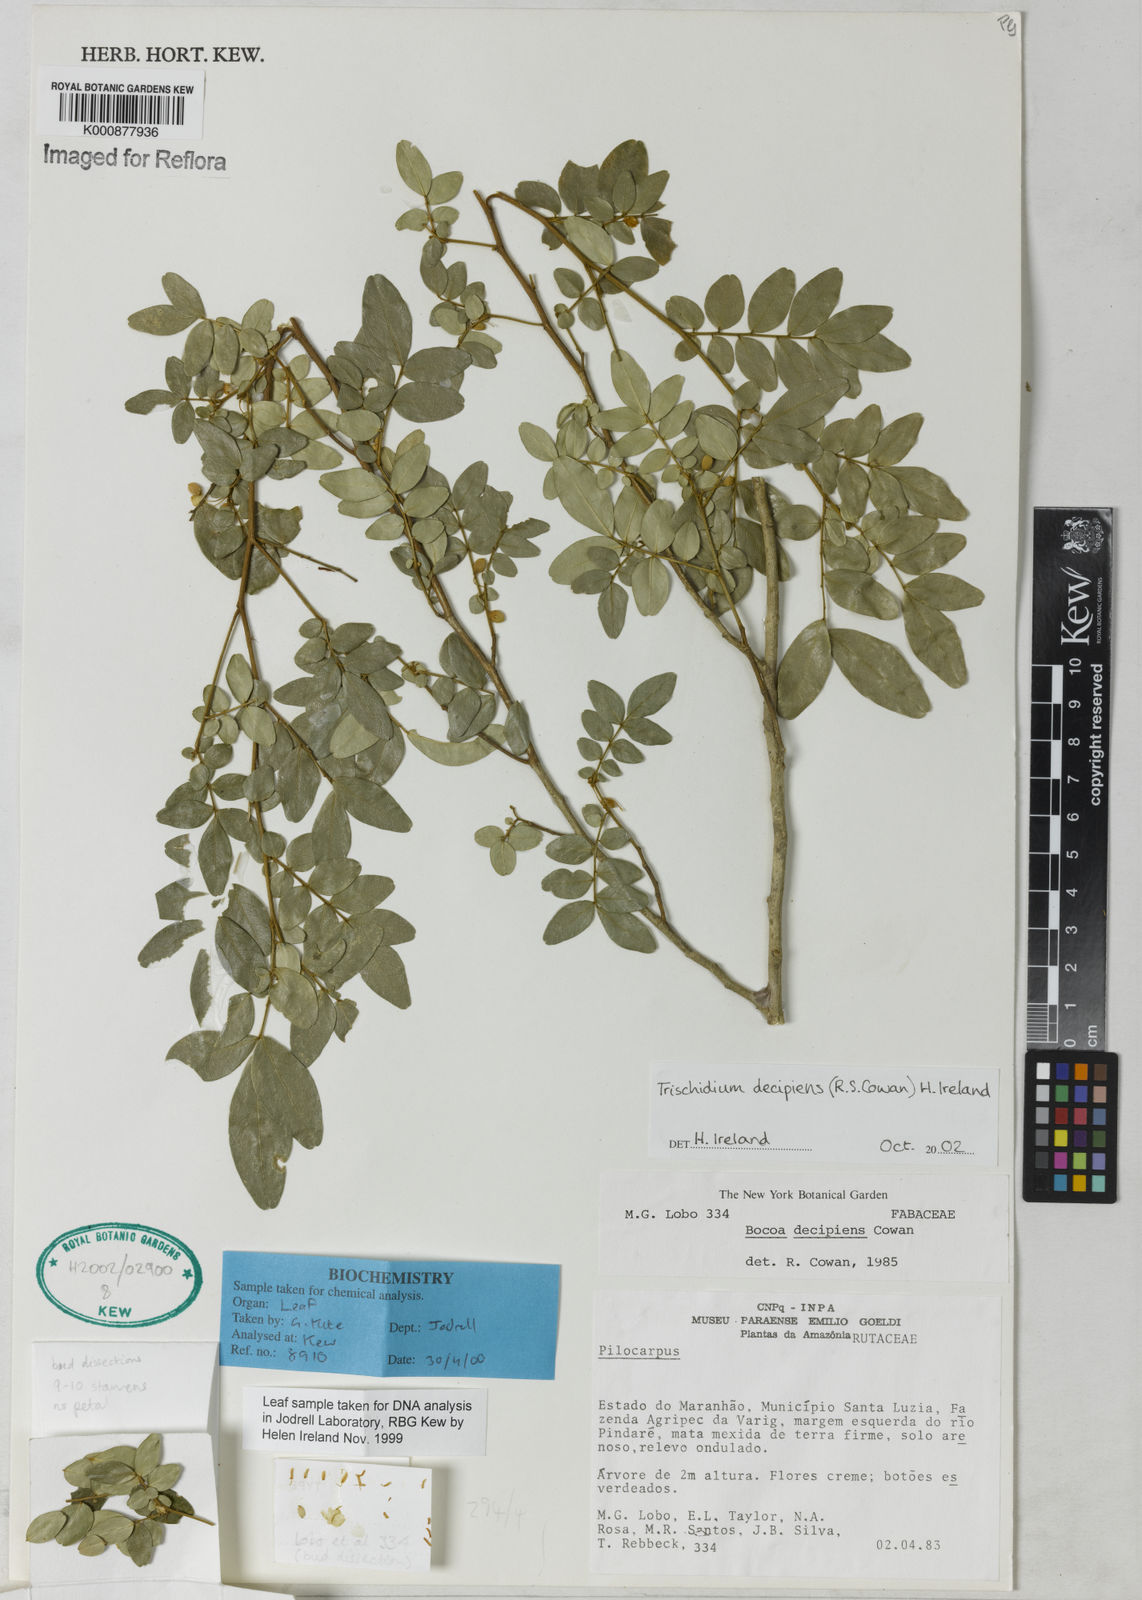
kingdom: Plantae
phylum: Tracheophyta
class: Magnoliopsida
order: Fabales
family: Fabaceae
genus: Trischidium
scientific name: Trischidium decipiens
